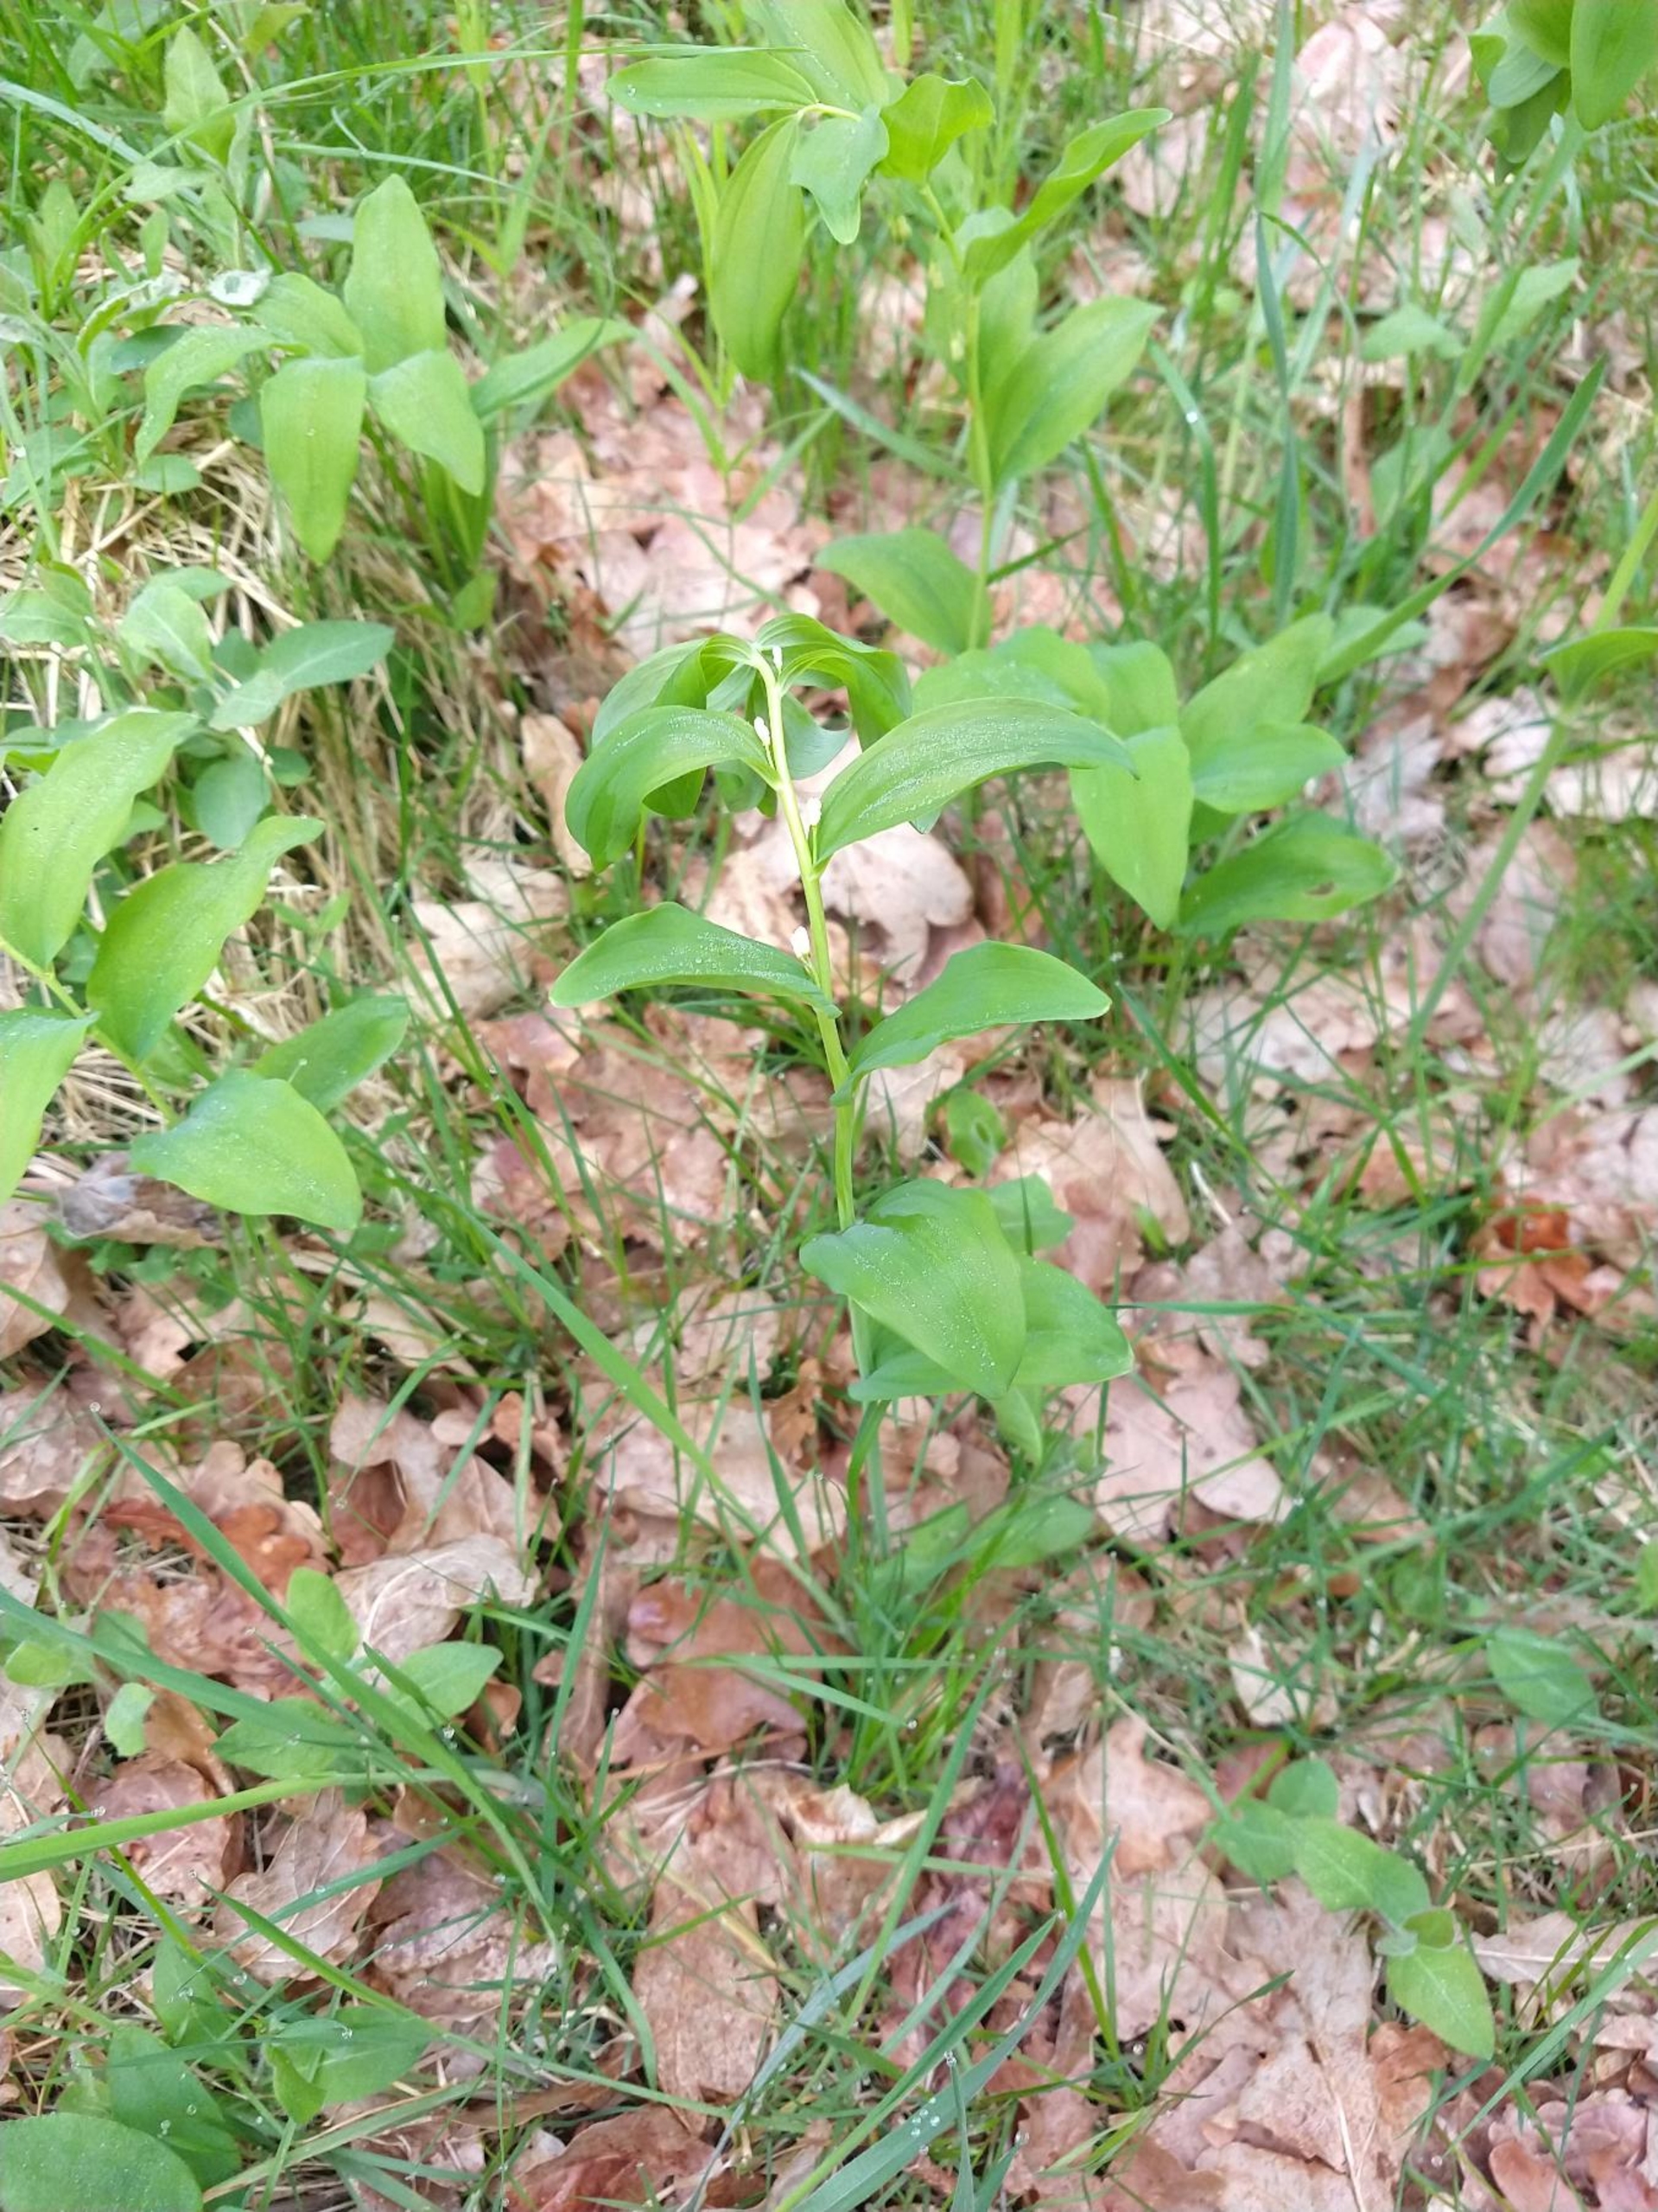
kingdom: Plantae
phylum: Tracheophyta
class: Liliopsida
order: Asparagales
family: Asparagaceae
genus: Polygonatum
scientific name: Polygonatum multiflorum
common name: Stor konval
